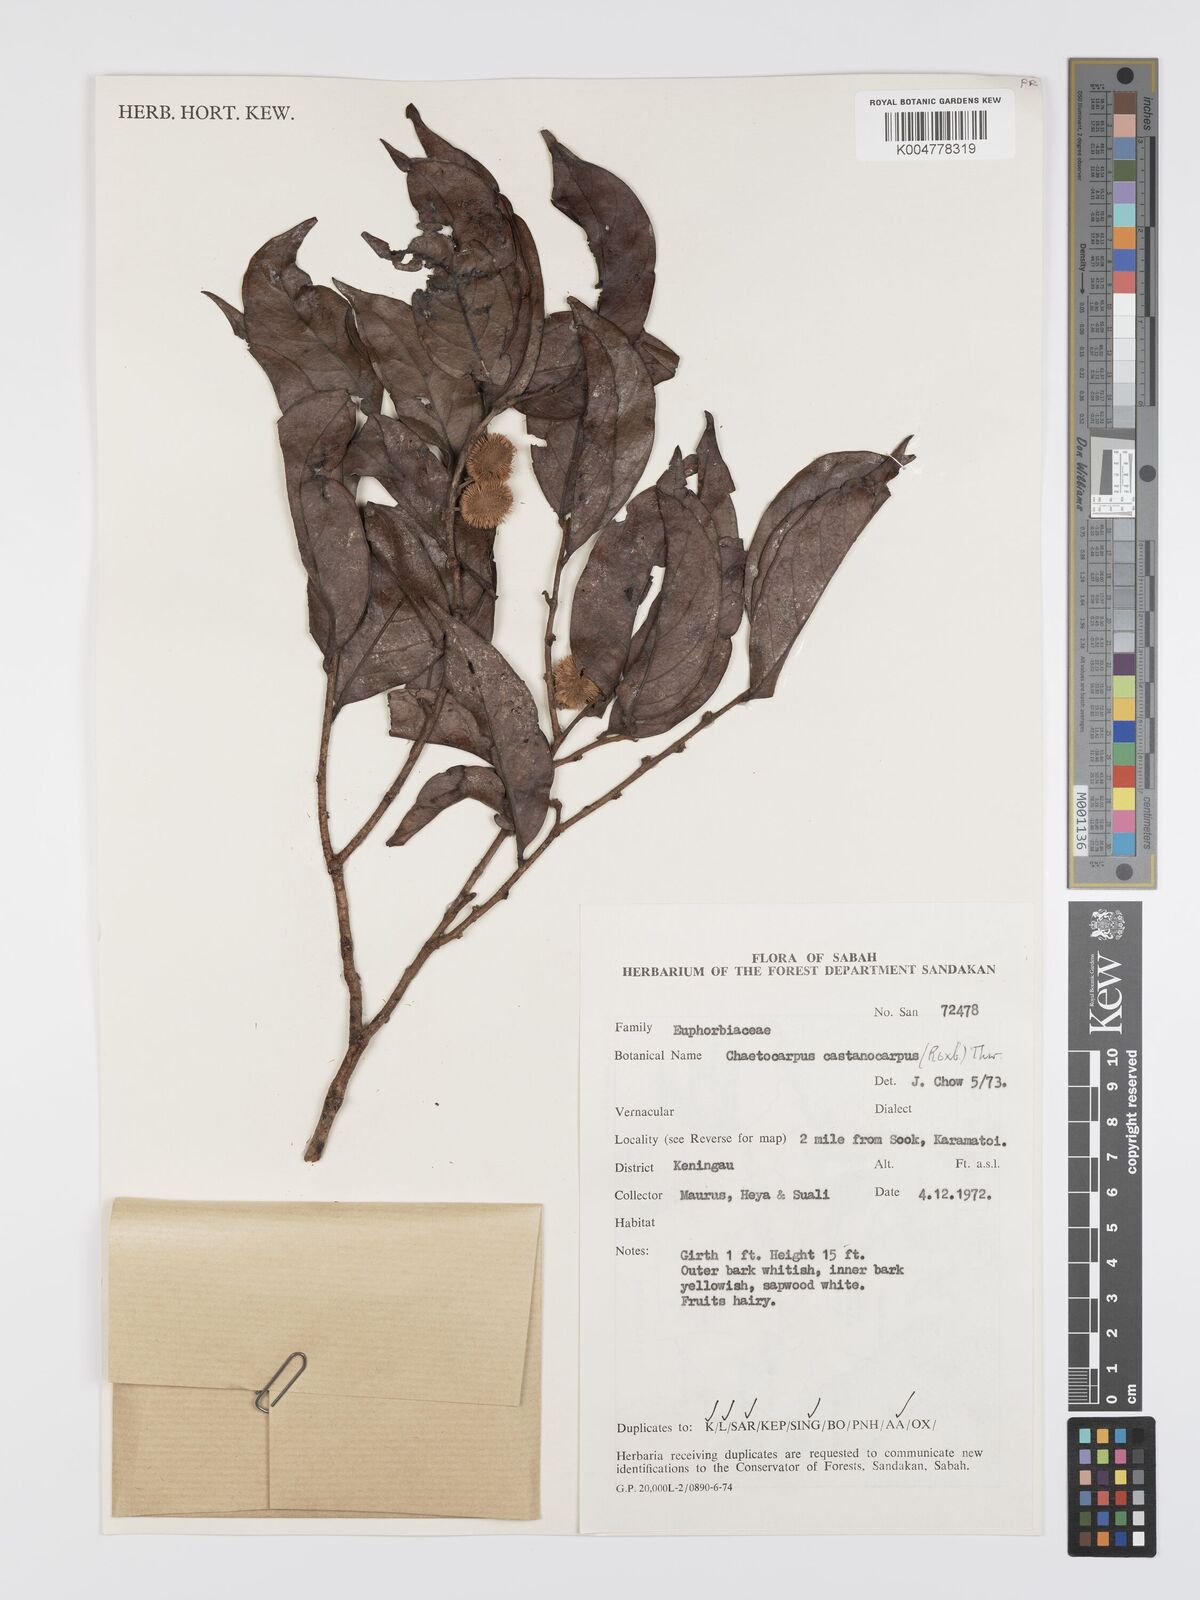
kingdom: Plantae
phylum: Tracheophyta
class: Magnoliopsida
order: Malpighiales
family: Peraceae
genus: Chaetocarpus
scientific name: Chaetocarpus castanocarpus
